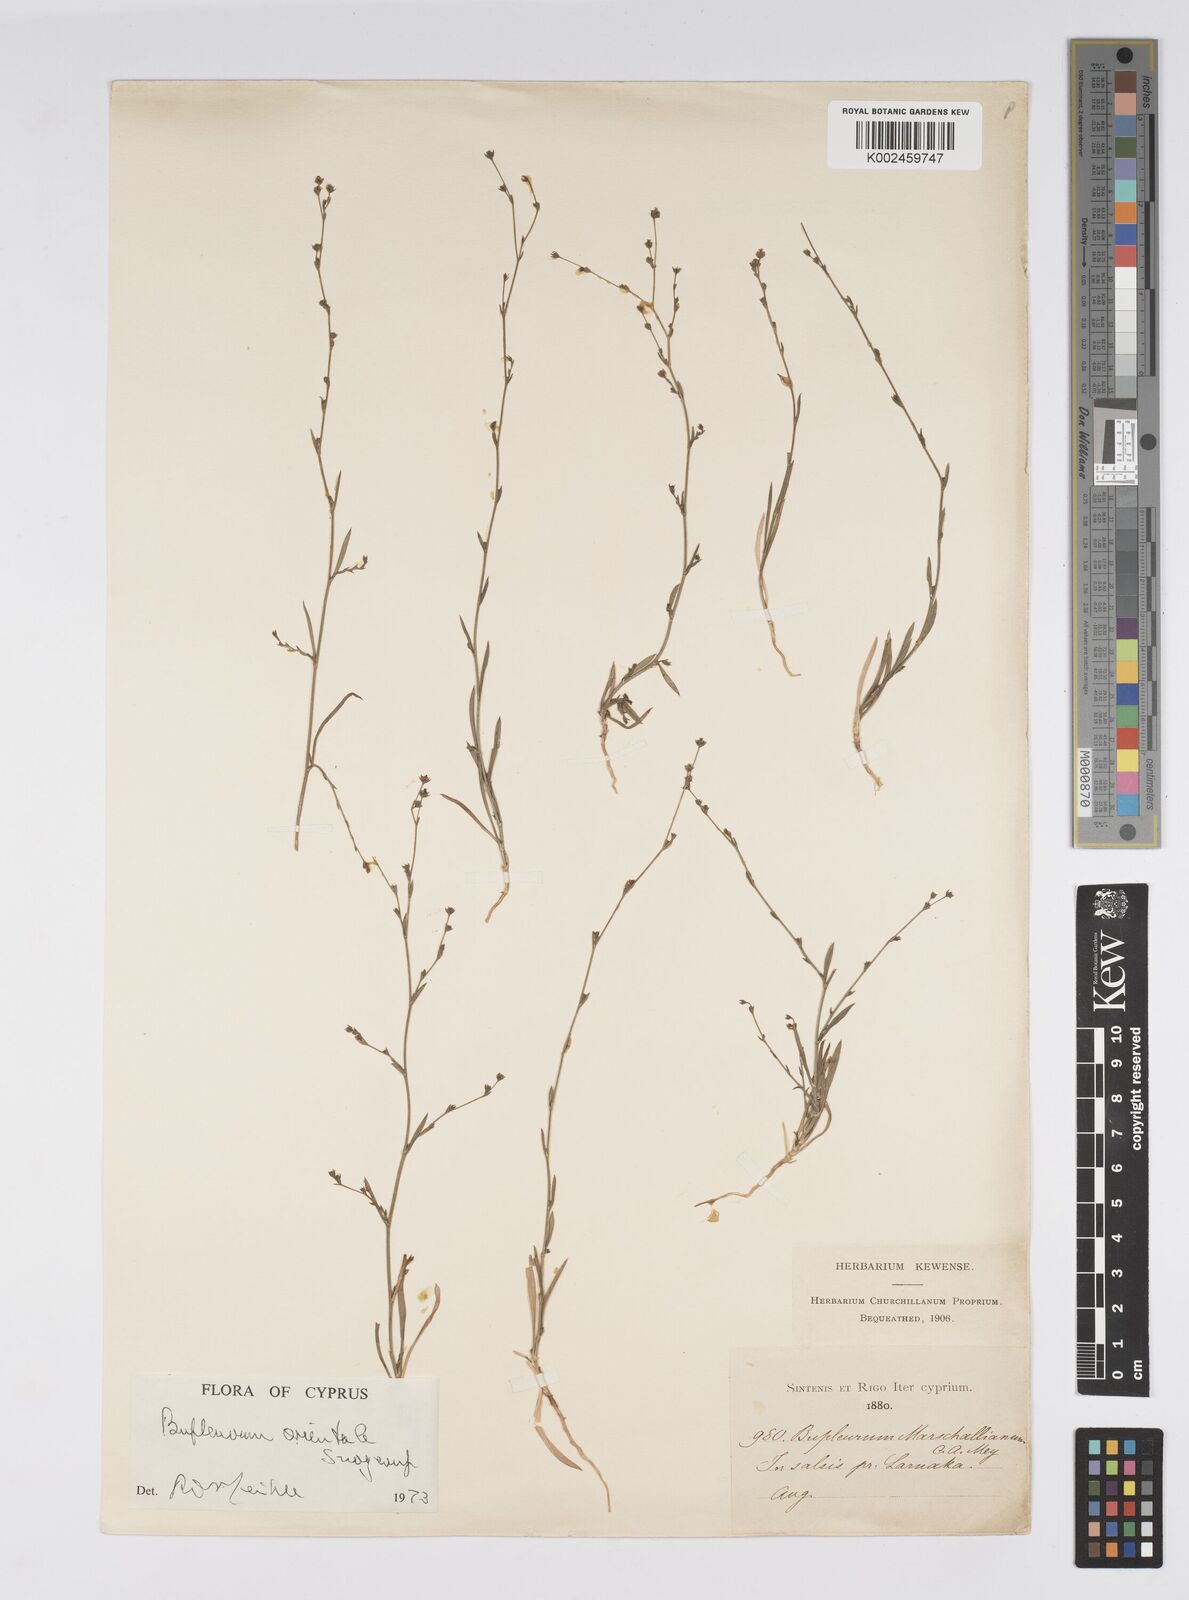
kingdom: Plantae
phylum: Tracheophyta
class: Magnoliopsida
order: Apiales
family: Apiaceae
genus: Bupleurum
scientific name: Bupleurum orientale
